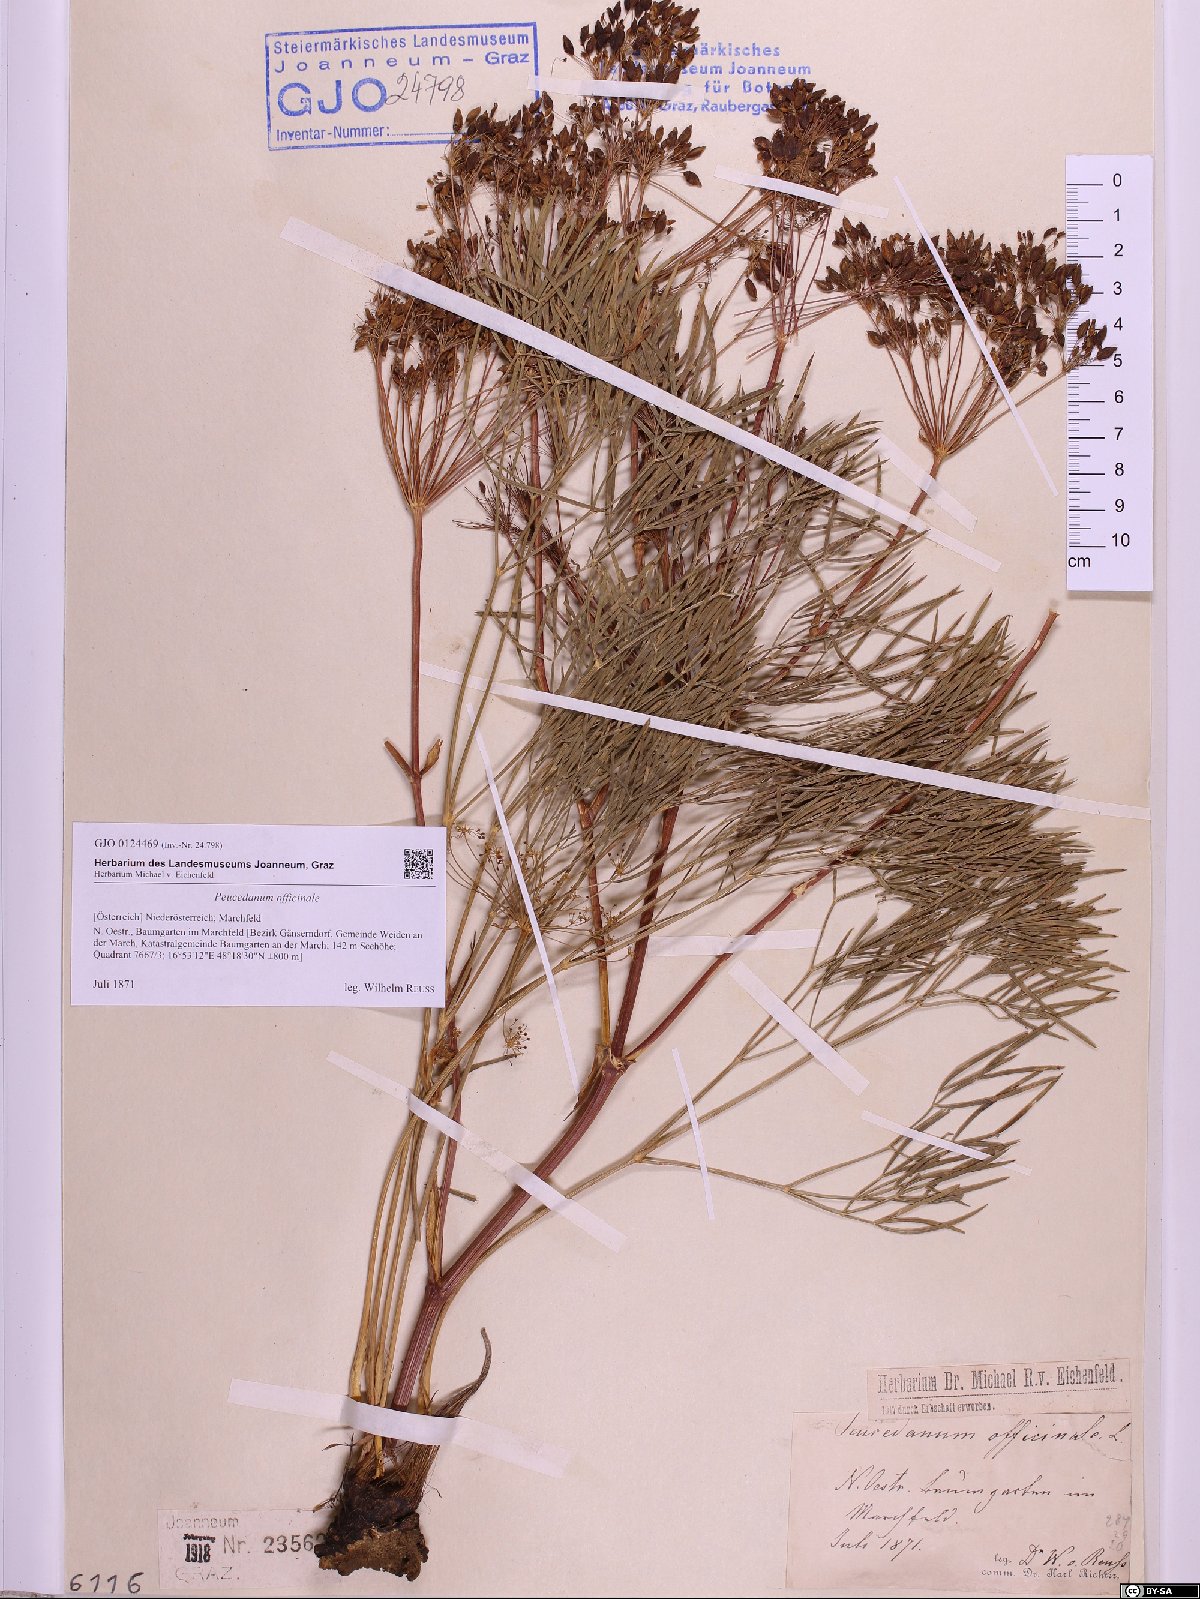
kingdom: Plantae
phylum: Tracheophyta
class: Magnoliopsida
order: Apiales
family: Apiaceae
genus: Peucedanum
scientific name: Peucedanum officinale
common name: Sulphurweed
